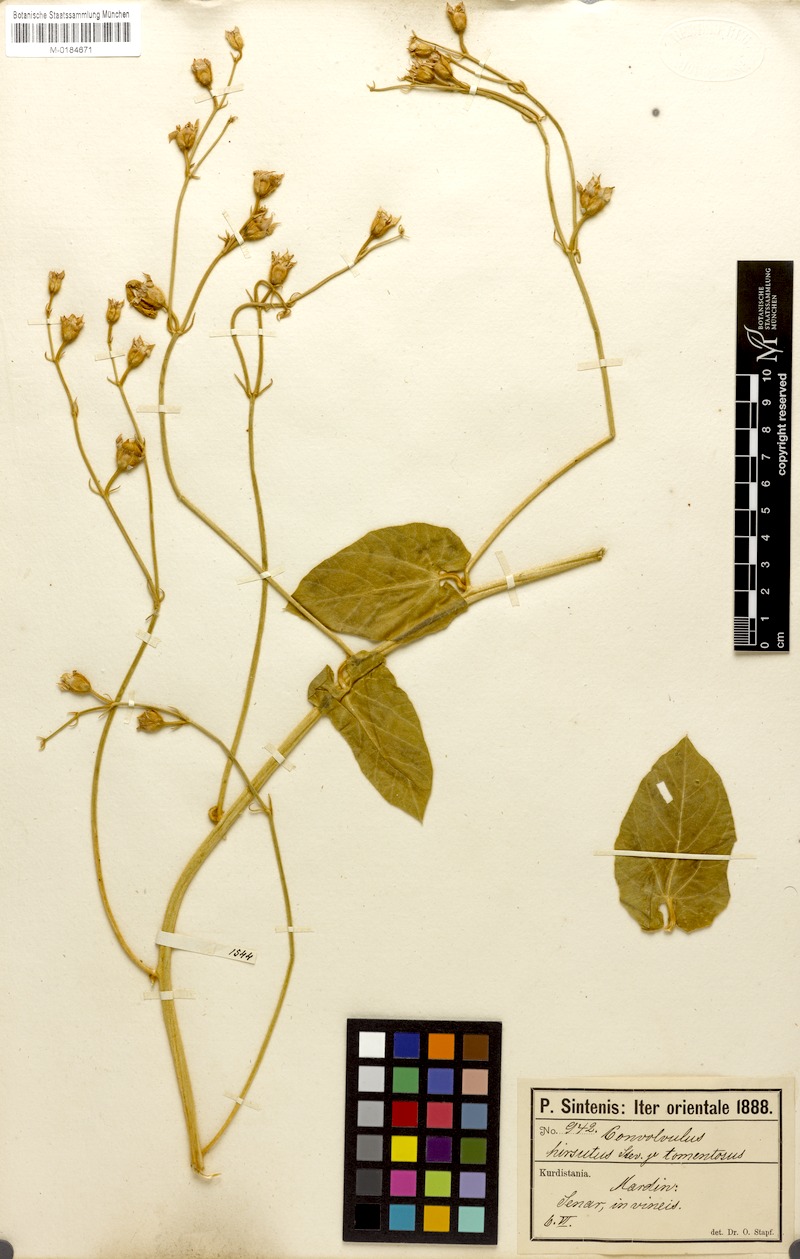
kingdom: Plantae
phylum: Tracheophyta
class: Magnoliopsida
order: Solanales
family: Convolvulaceae
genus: Convolvulus
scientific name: Convolvulus betonicifolius
